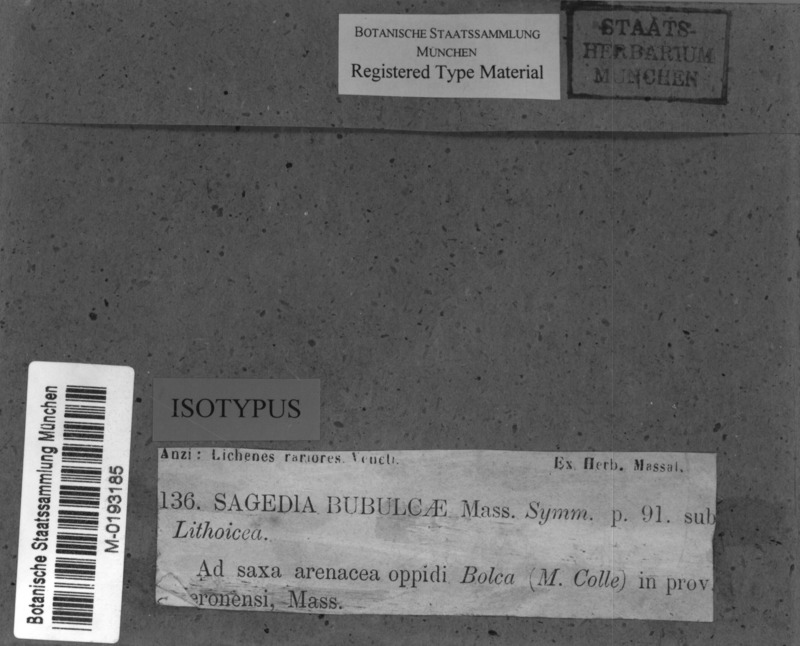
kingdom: Fungi
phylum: Ascomycota
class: Eurotiomycetes
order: Verrucariales
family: Verrucariaceae
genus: Thelidium
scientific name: Thelidium zwackhii
